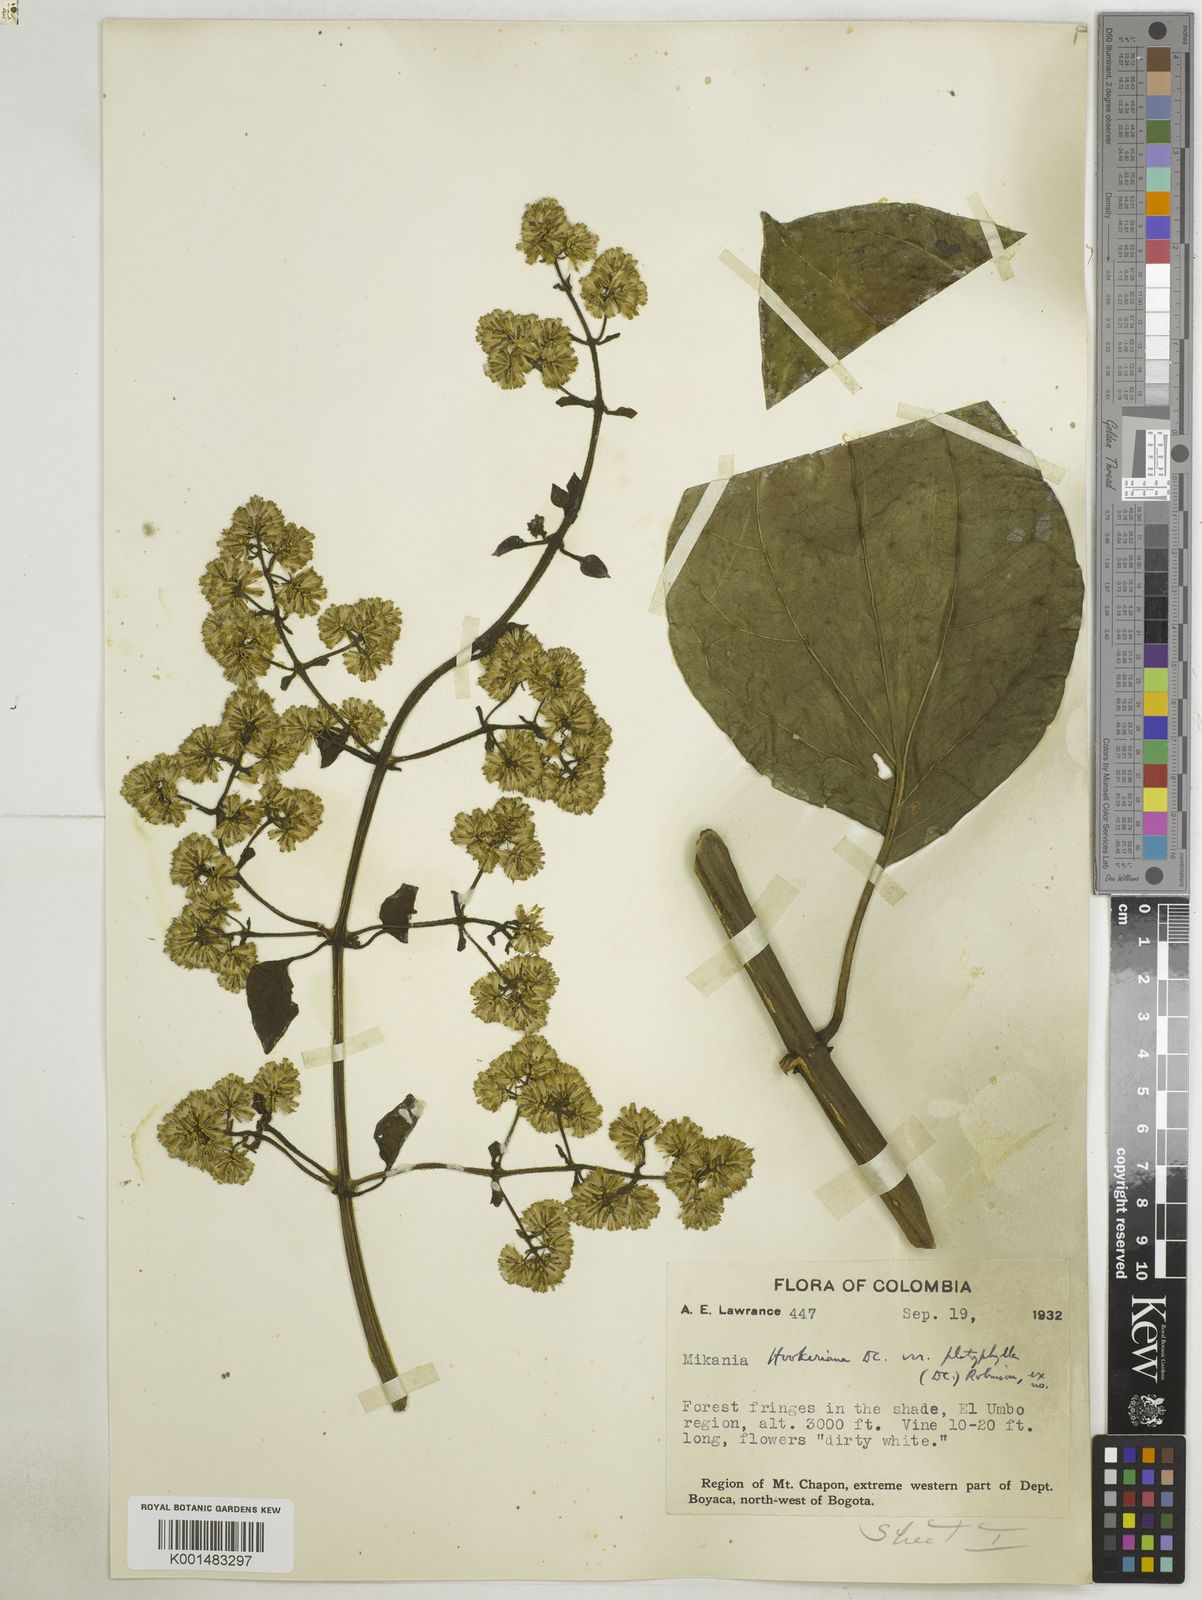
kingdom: Plantae
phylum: Tracheophyta
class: Magnoliopsida
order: Asterales
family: Asteraceae
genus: Mikania
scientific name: Mikania hookeriana
